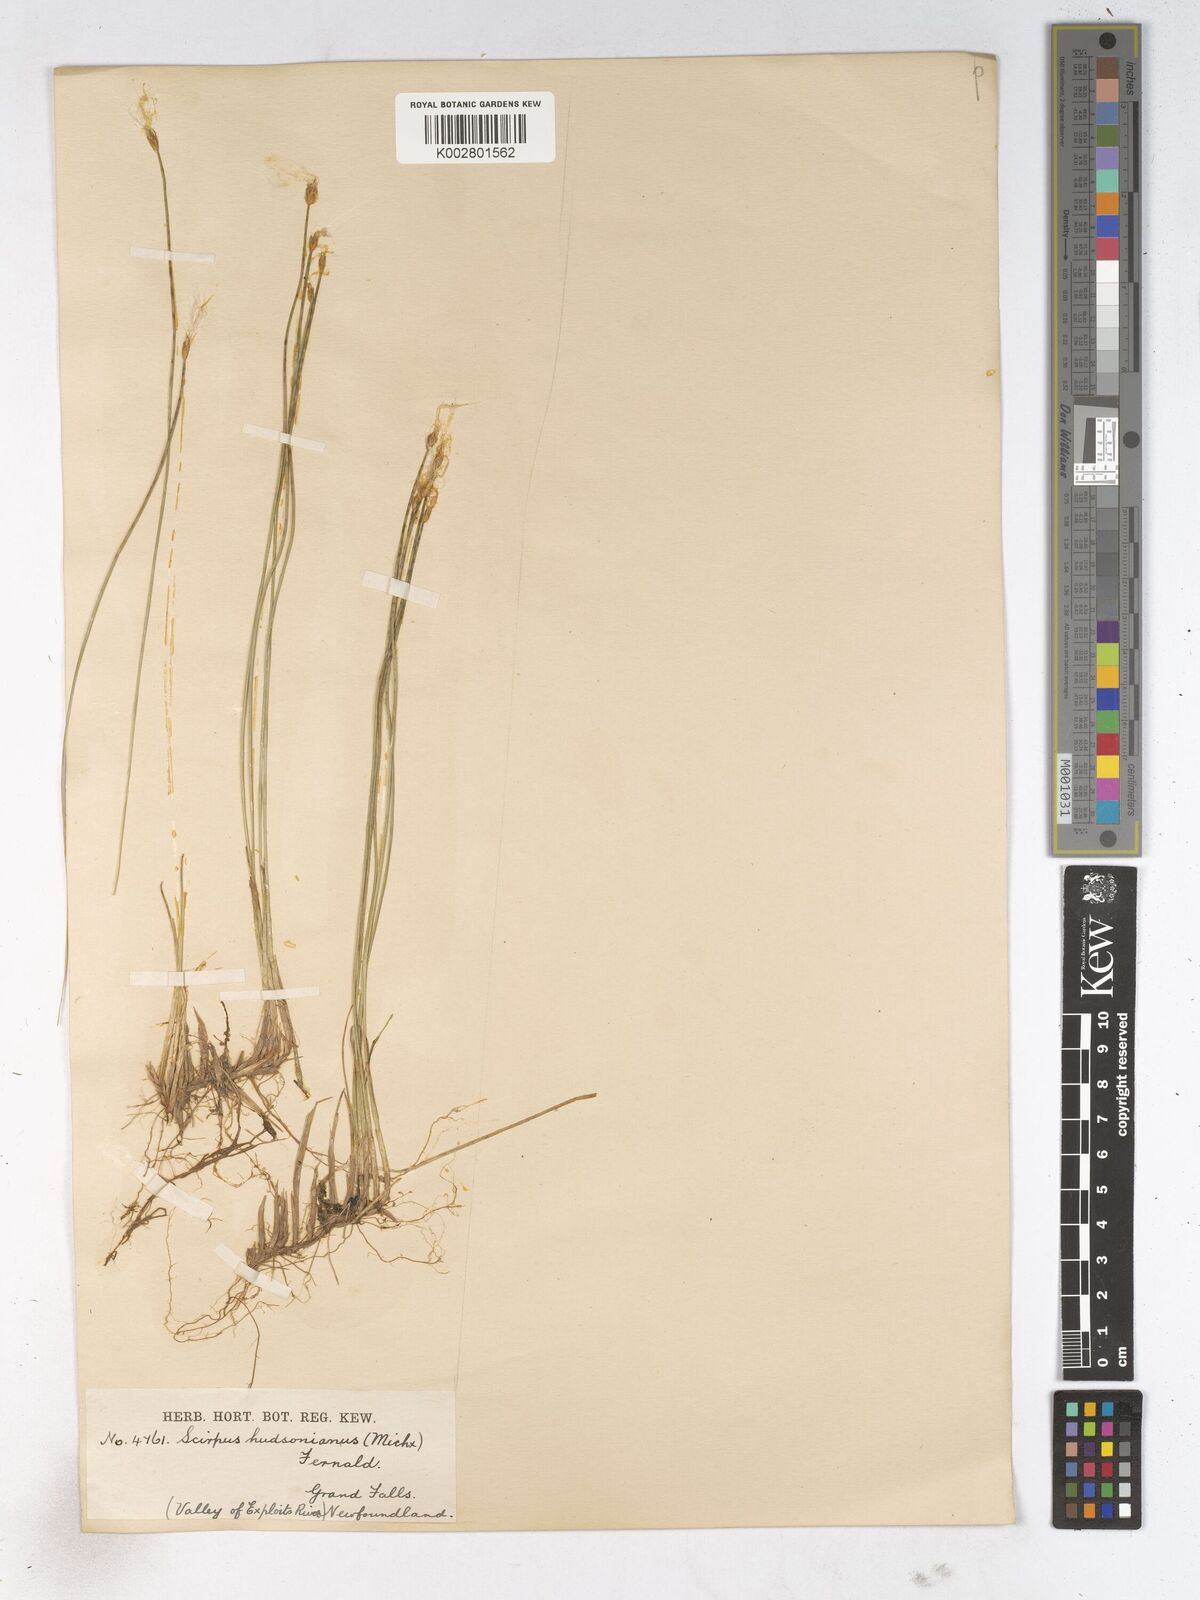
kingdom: Plantae
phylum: Tracheophyta
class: Liliopsida
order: Poales
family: Cyperaceae
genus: Trichophorum
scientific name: Trichophorum alpinum
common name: Alpine bulrush
